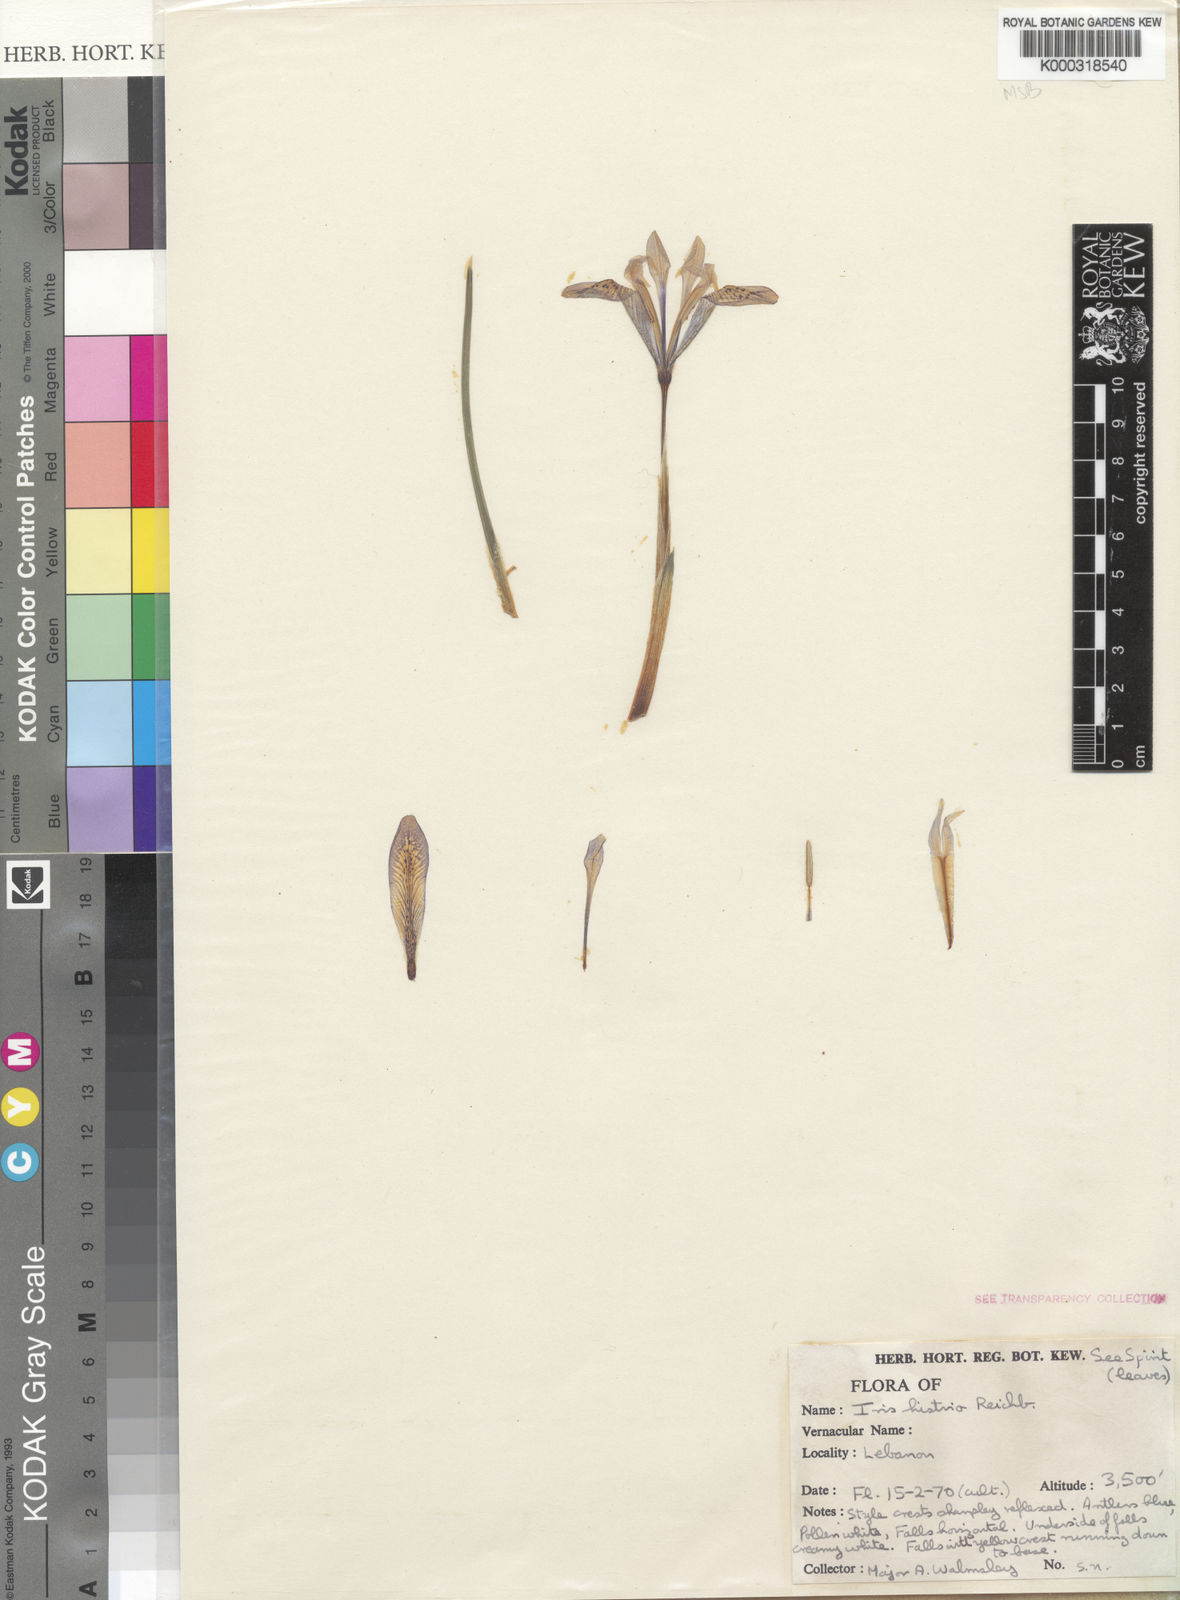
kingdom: Plantae
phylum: Tracheophyta
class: Liliopsida
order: Asparagales
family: Iridaceae
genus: Iris
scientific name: Iris histrio
